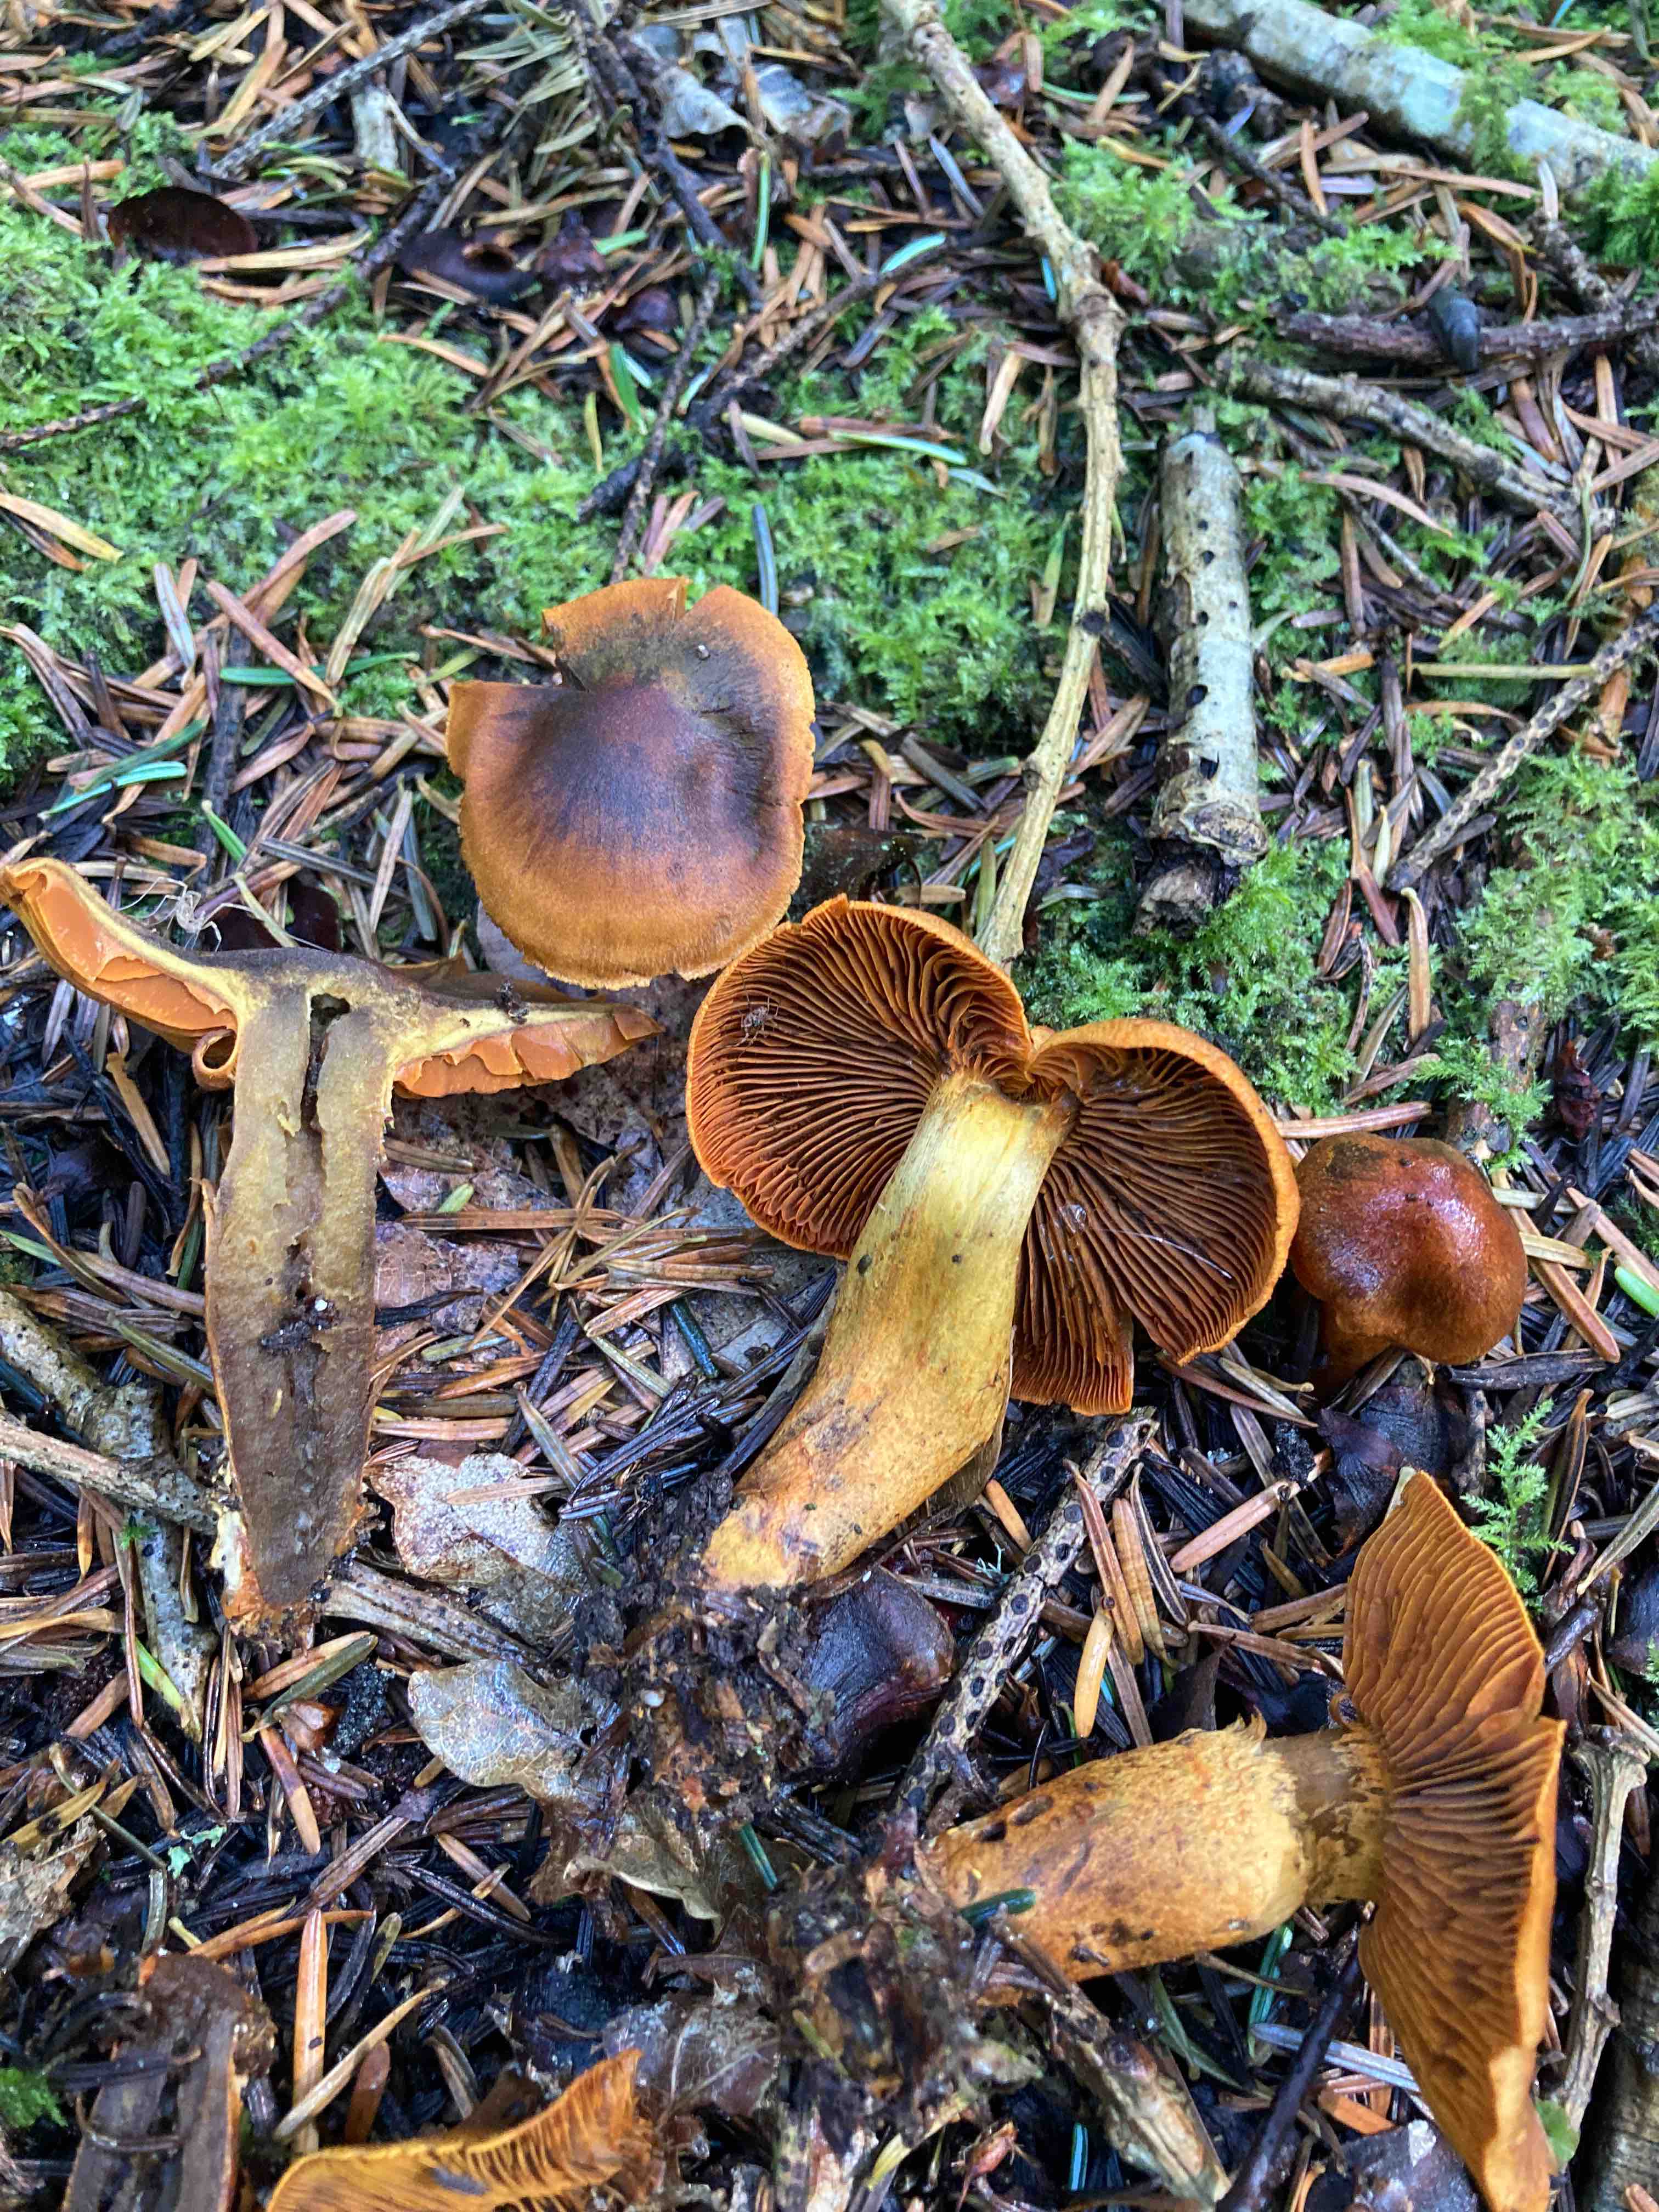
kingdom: Fungi
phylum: Basidiomycota
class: Agaricomycetes
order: Agaricales
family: Cortinariaceae
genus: Cortinarius
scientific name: Cortinarius malicorius
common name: grønkødet slørhat
